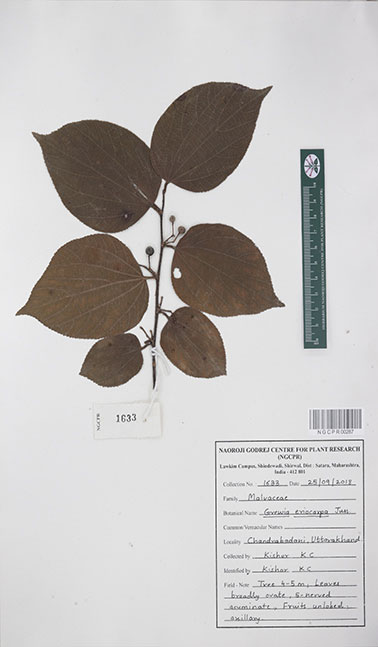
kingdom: Plantae
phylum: Tracheophyta
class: Magnoliopsida
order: Malvales
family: Malvaceae
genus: Grewia
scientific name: Grewia eriocarpa
